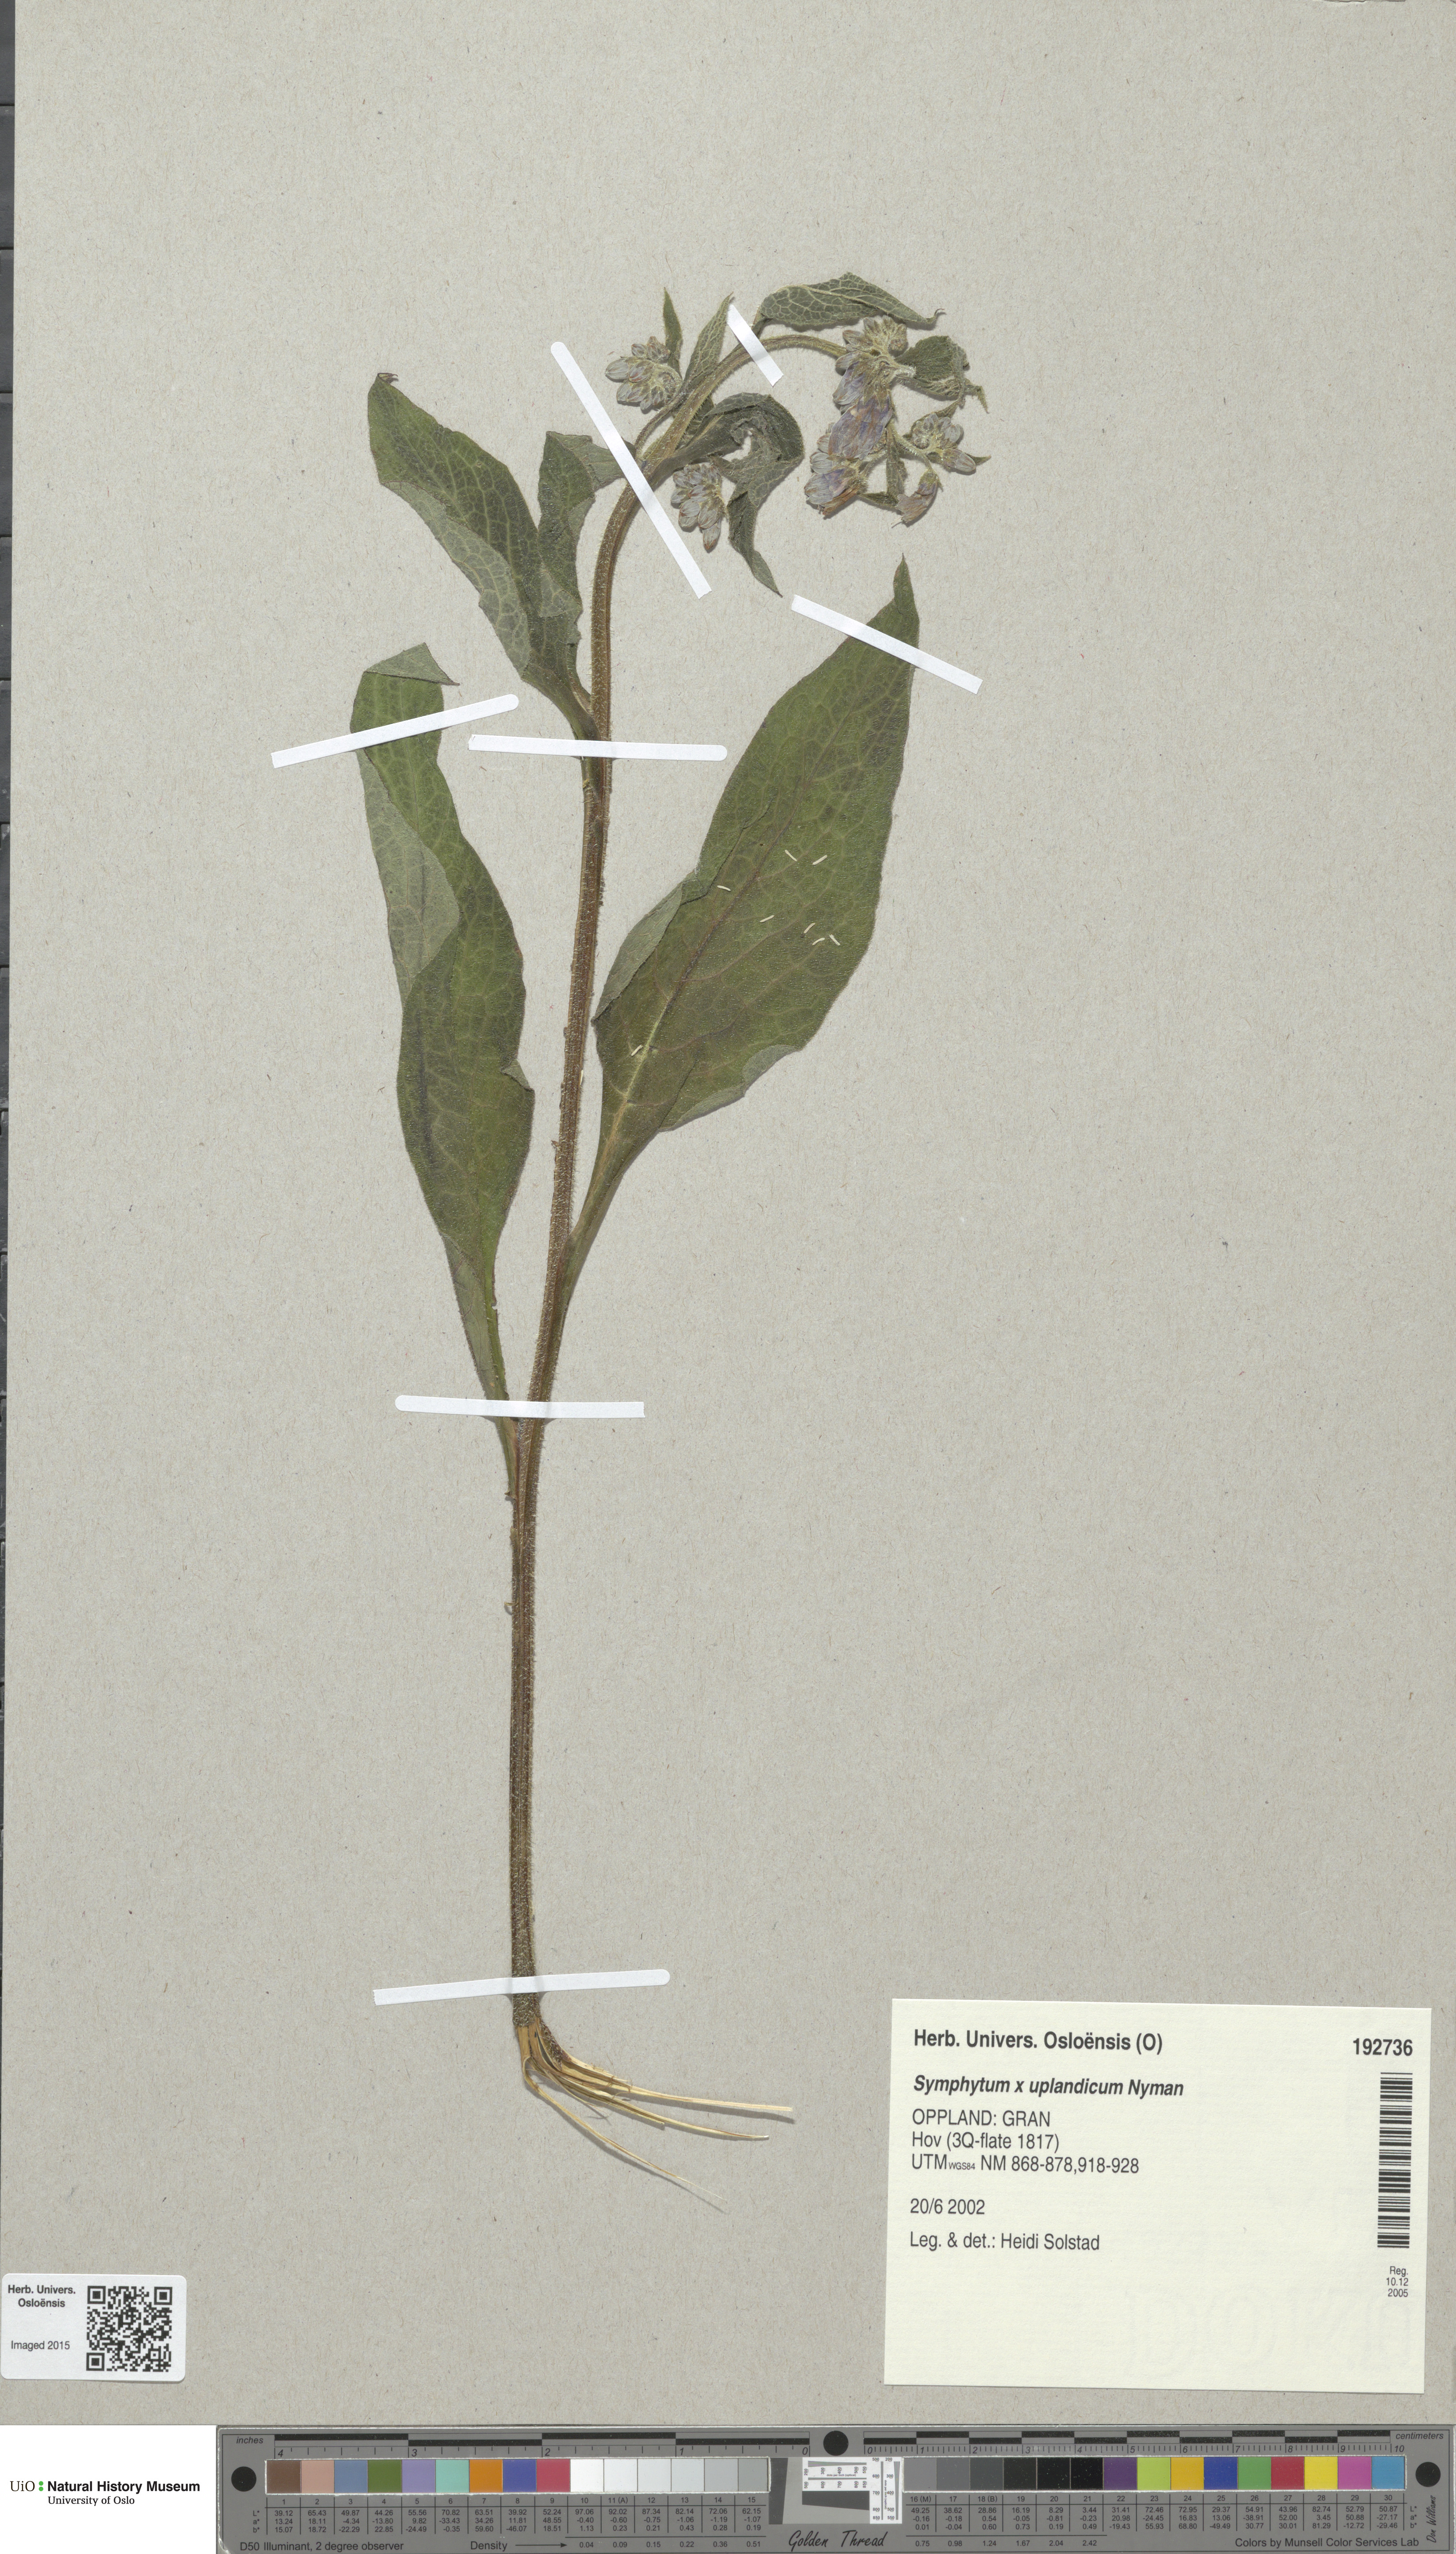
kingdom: Plantae
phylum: Tracheophyta
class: Magnoliopsida
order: Boraginales
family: Boraginaceae
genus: Symphytum
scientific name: Symphytum uplandicum
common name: Russian comfrey
